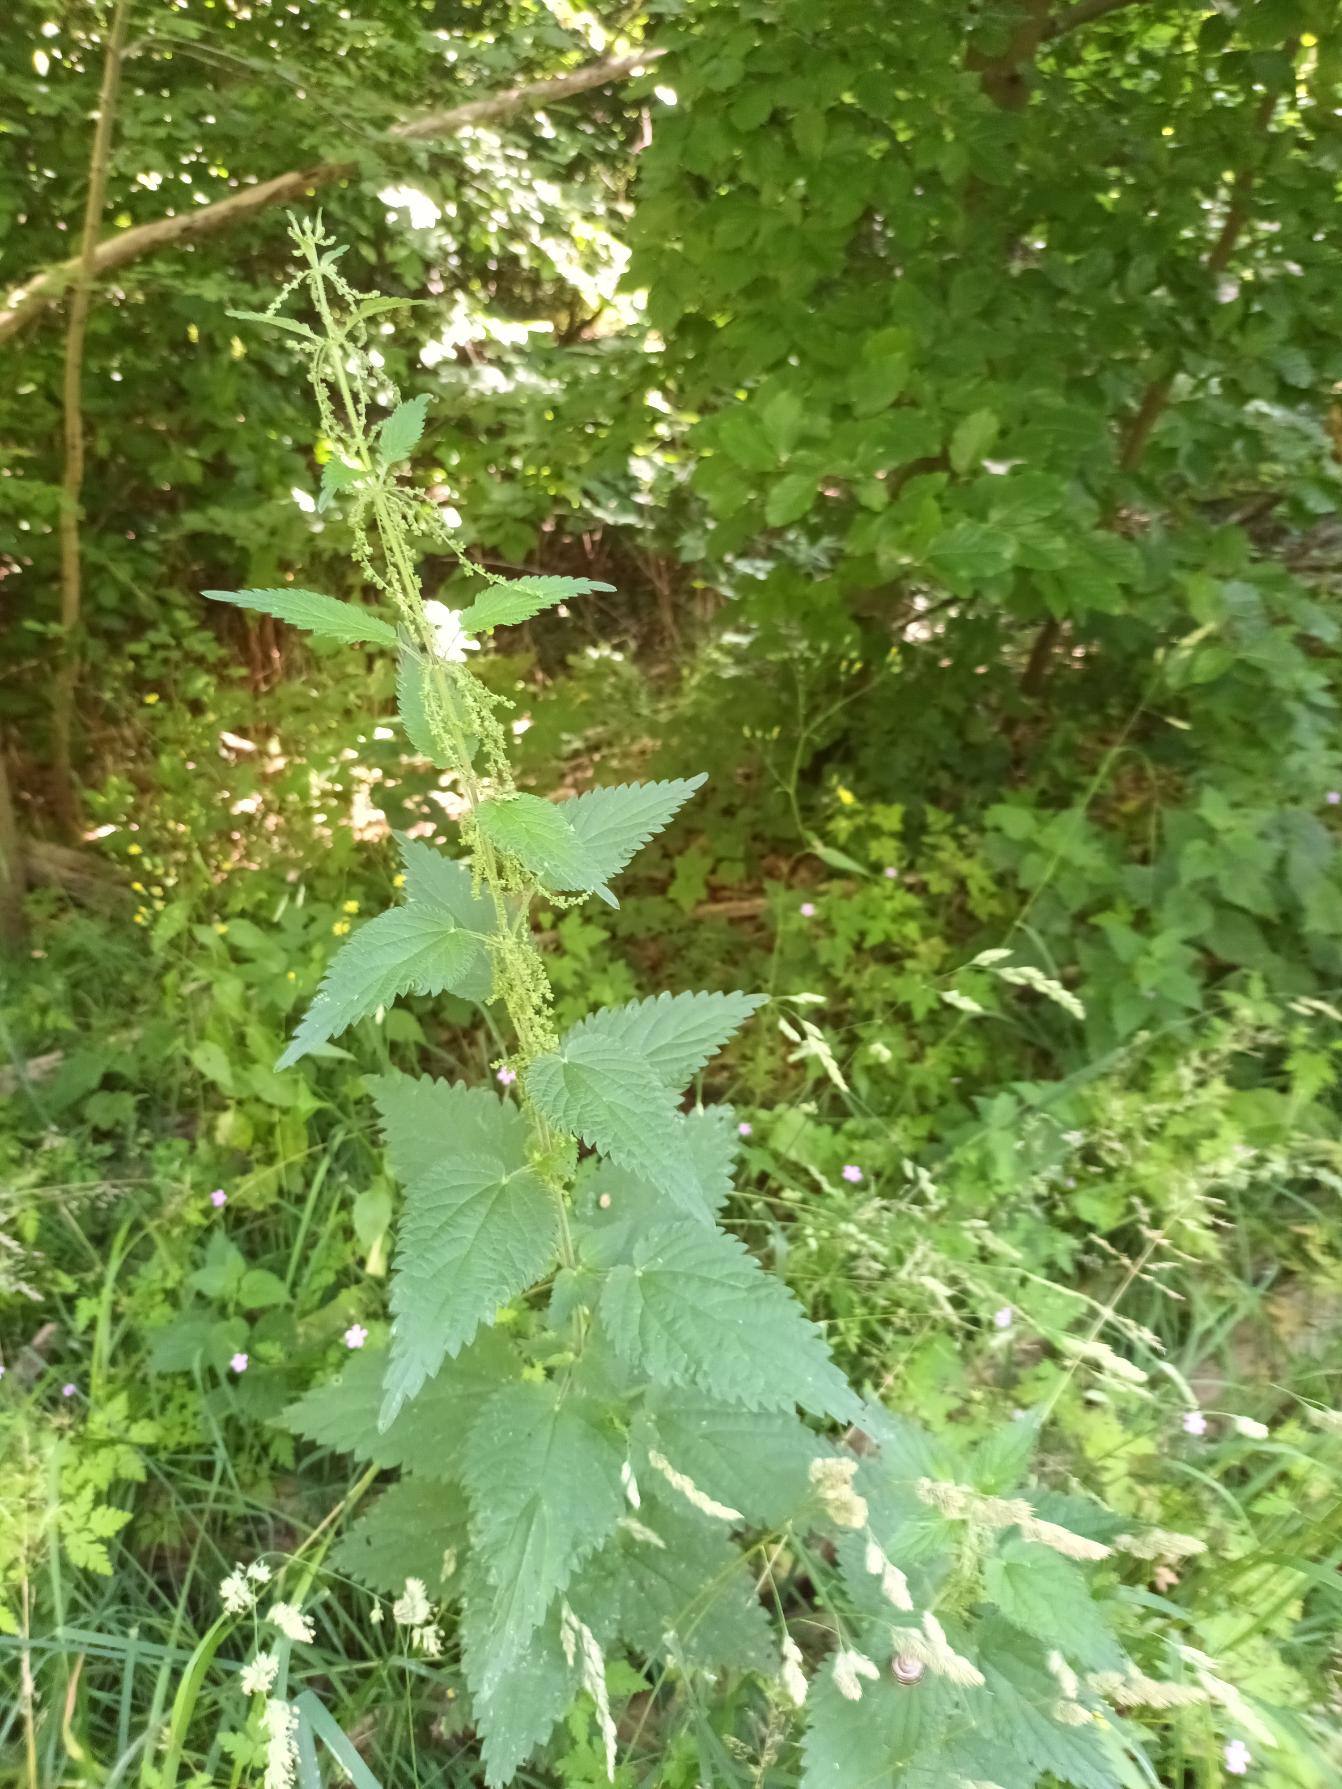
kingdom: Plantae
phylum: Tracheophyta
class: Magnoliopsida
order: Rosales
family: Urticaceae
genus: Urtica
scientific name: Urtica dioica
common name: Stor nælde
